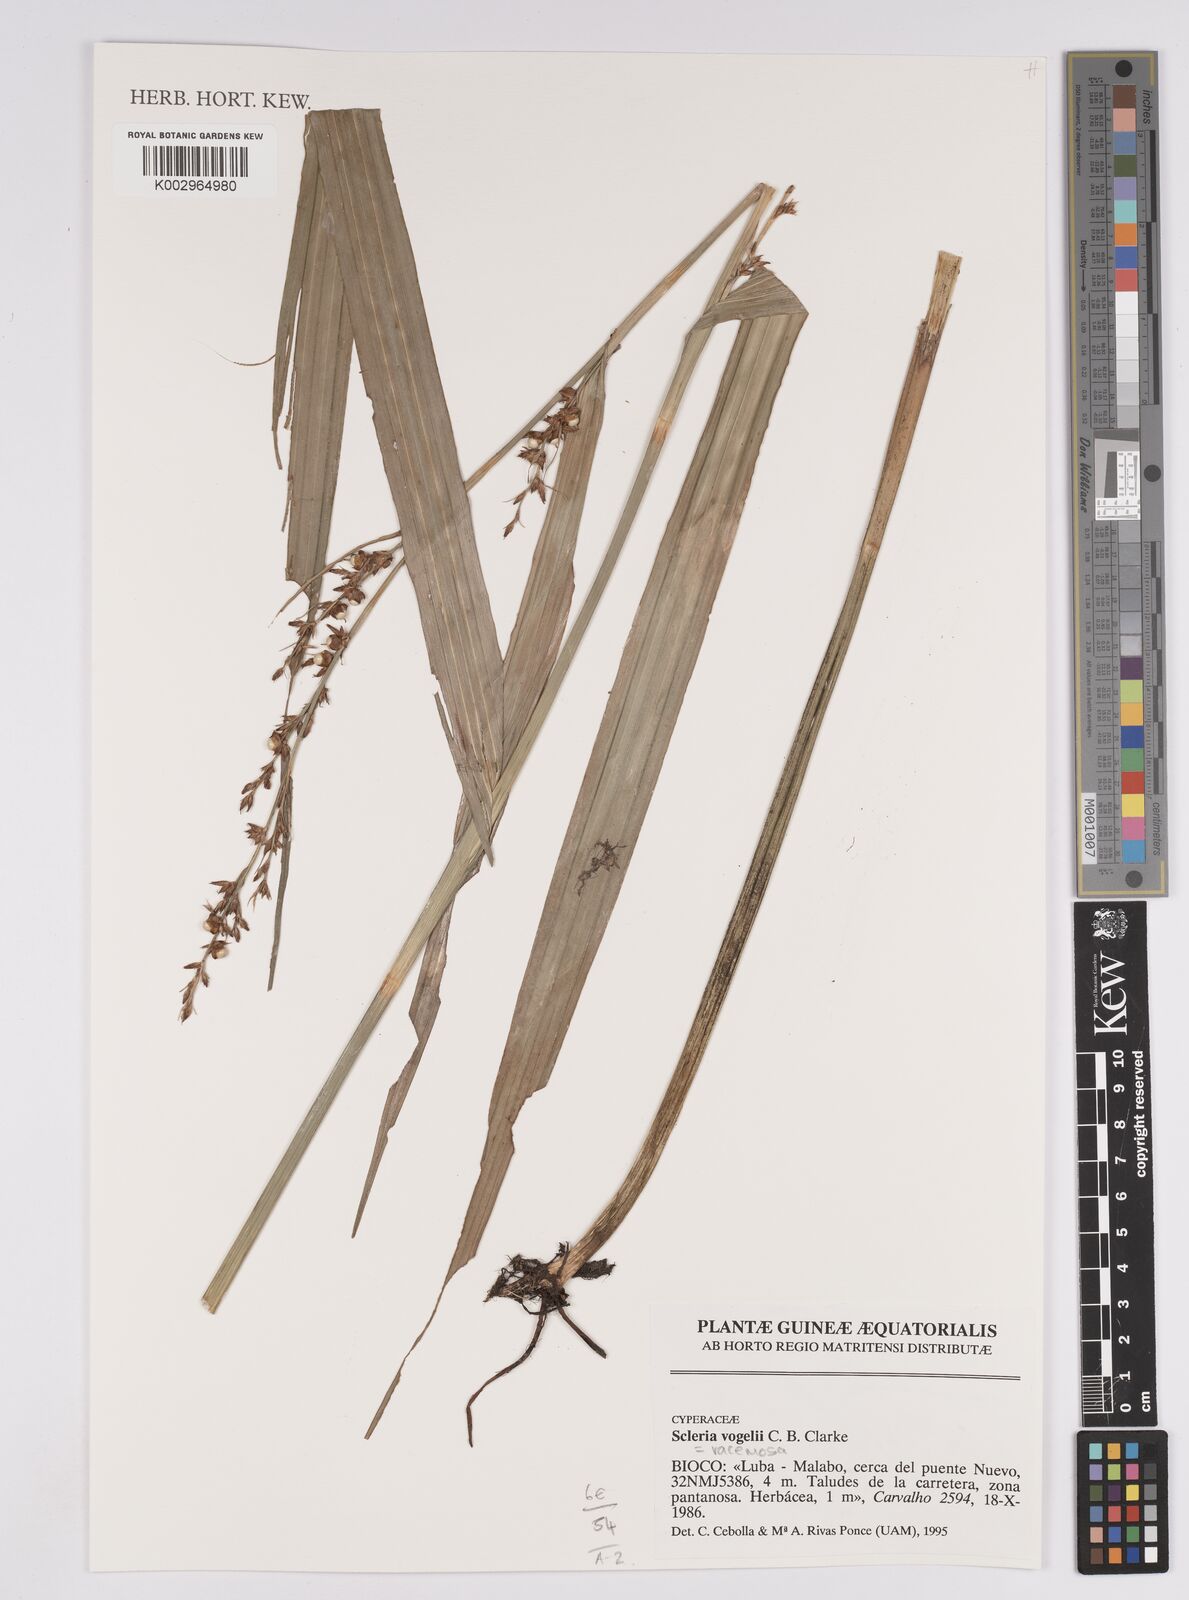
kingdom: Plantae
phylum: Tracheophyta
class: Liliopsida
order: Poales
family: Cyperaceae
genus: Scleria
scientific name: Scleria vogelii
